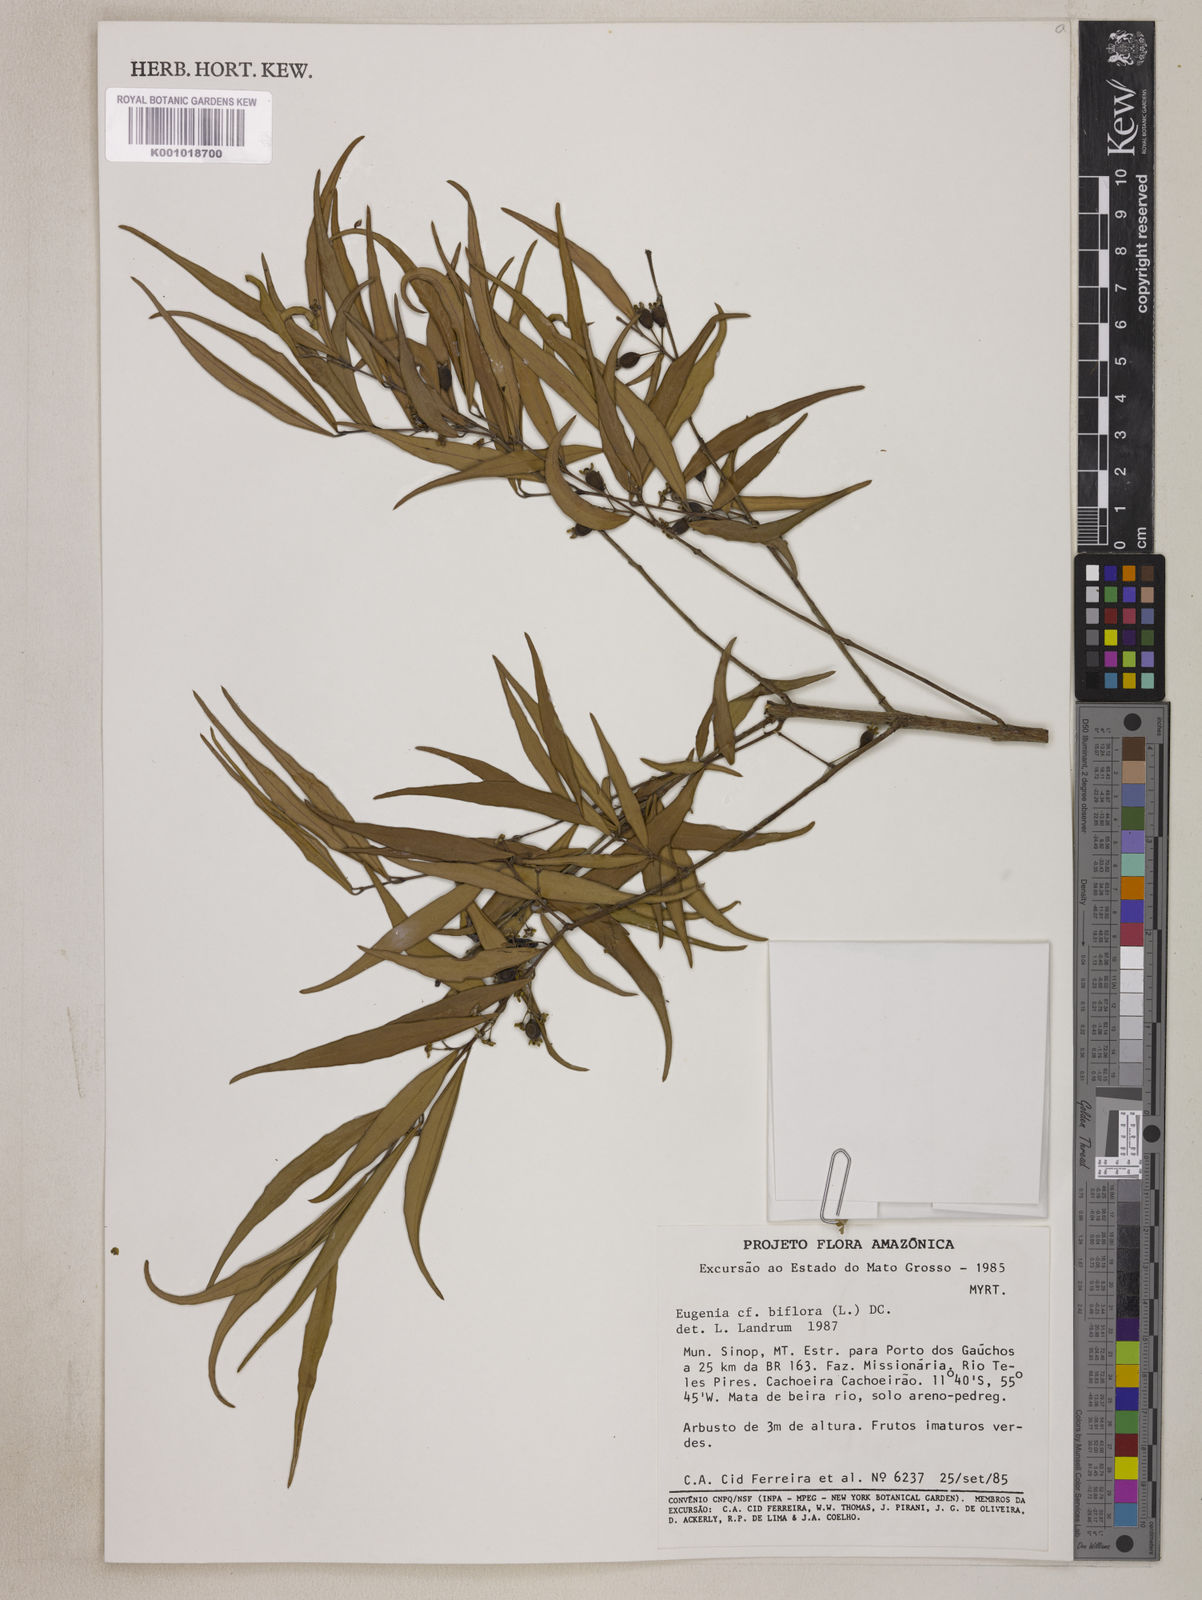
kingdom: Plantae
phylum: Tracheophyta
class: Magnoliopsida
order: Myrtales
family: Myrtaceae
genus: Eugenia
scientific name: Eugenia biflora
